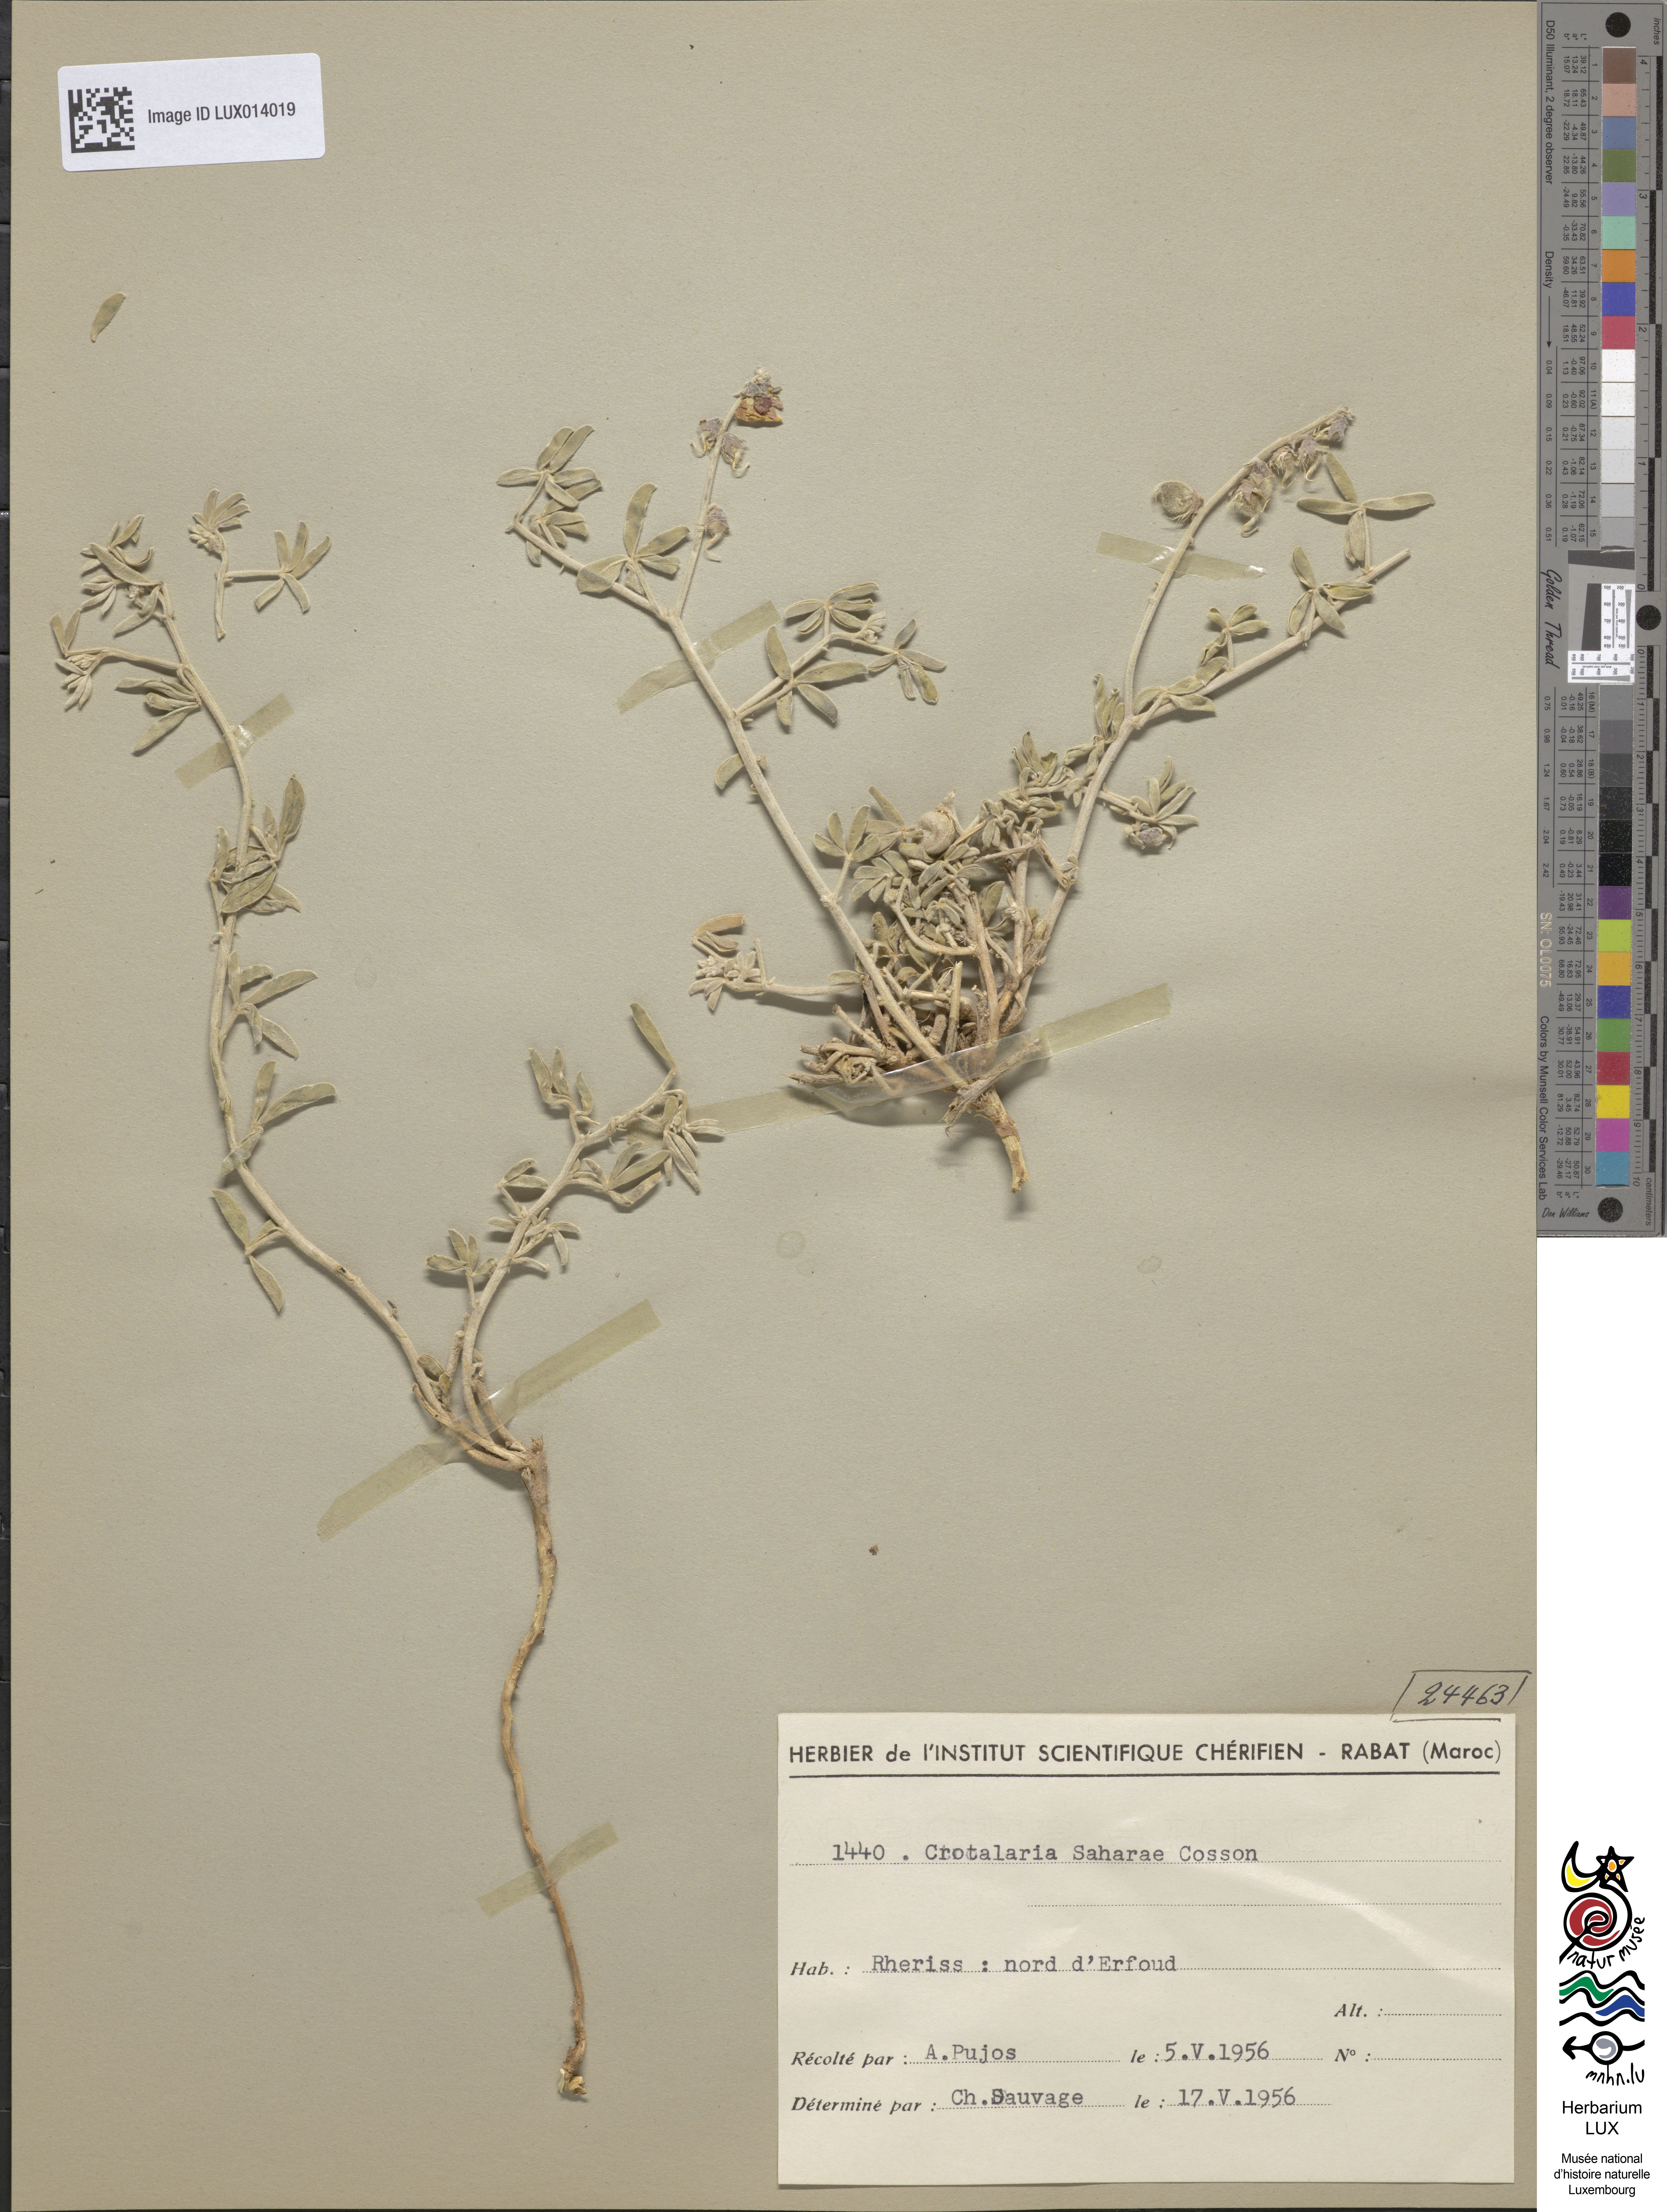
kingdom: Plantae
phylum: Tracheophyta
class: Magnoliopsida
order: Fabales
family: Fabaceae
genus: Crotalaria
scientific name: Crotalaria saharae
